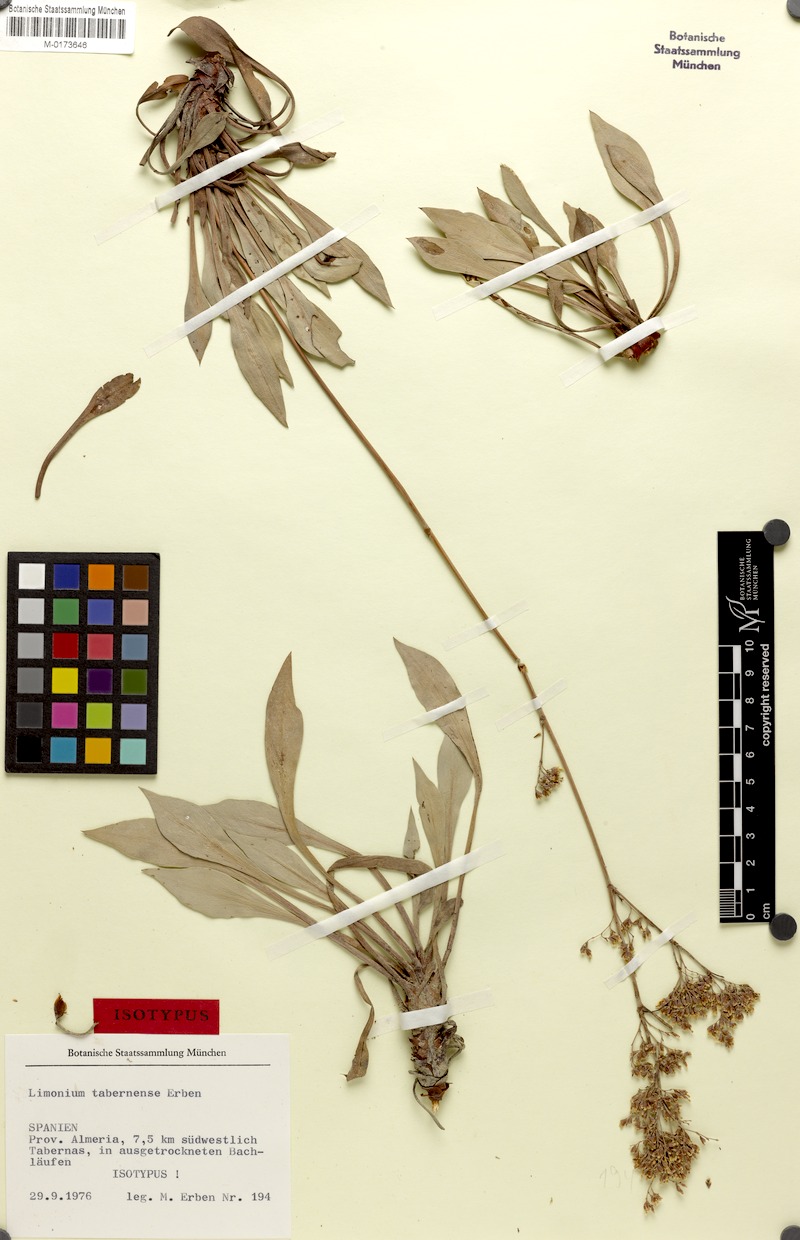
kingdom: Plantae
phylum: Tracheophyta
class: Magnoliopsida
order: Caryophyllales
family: Plumbaginaceae
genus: Limonium
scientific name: Limonium tabernense
